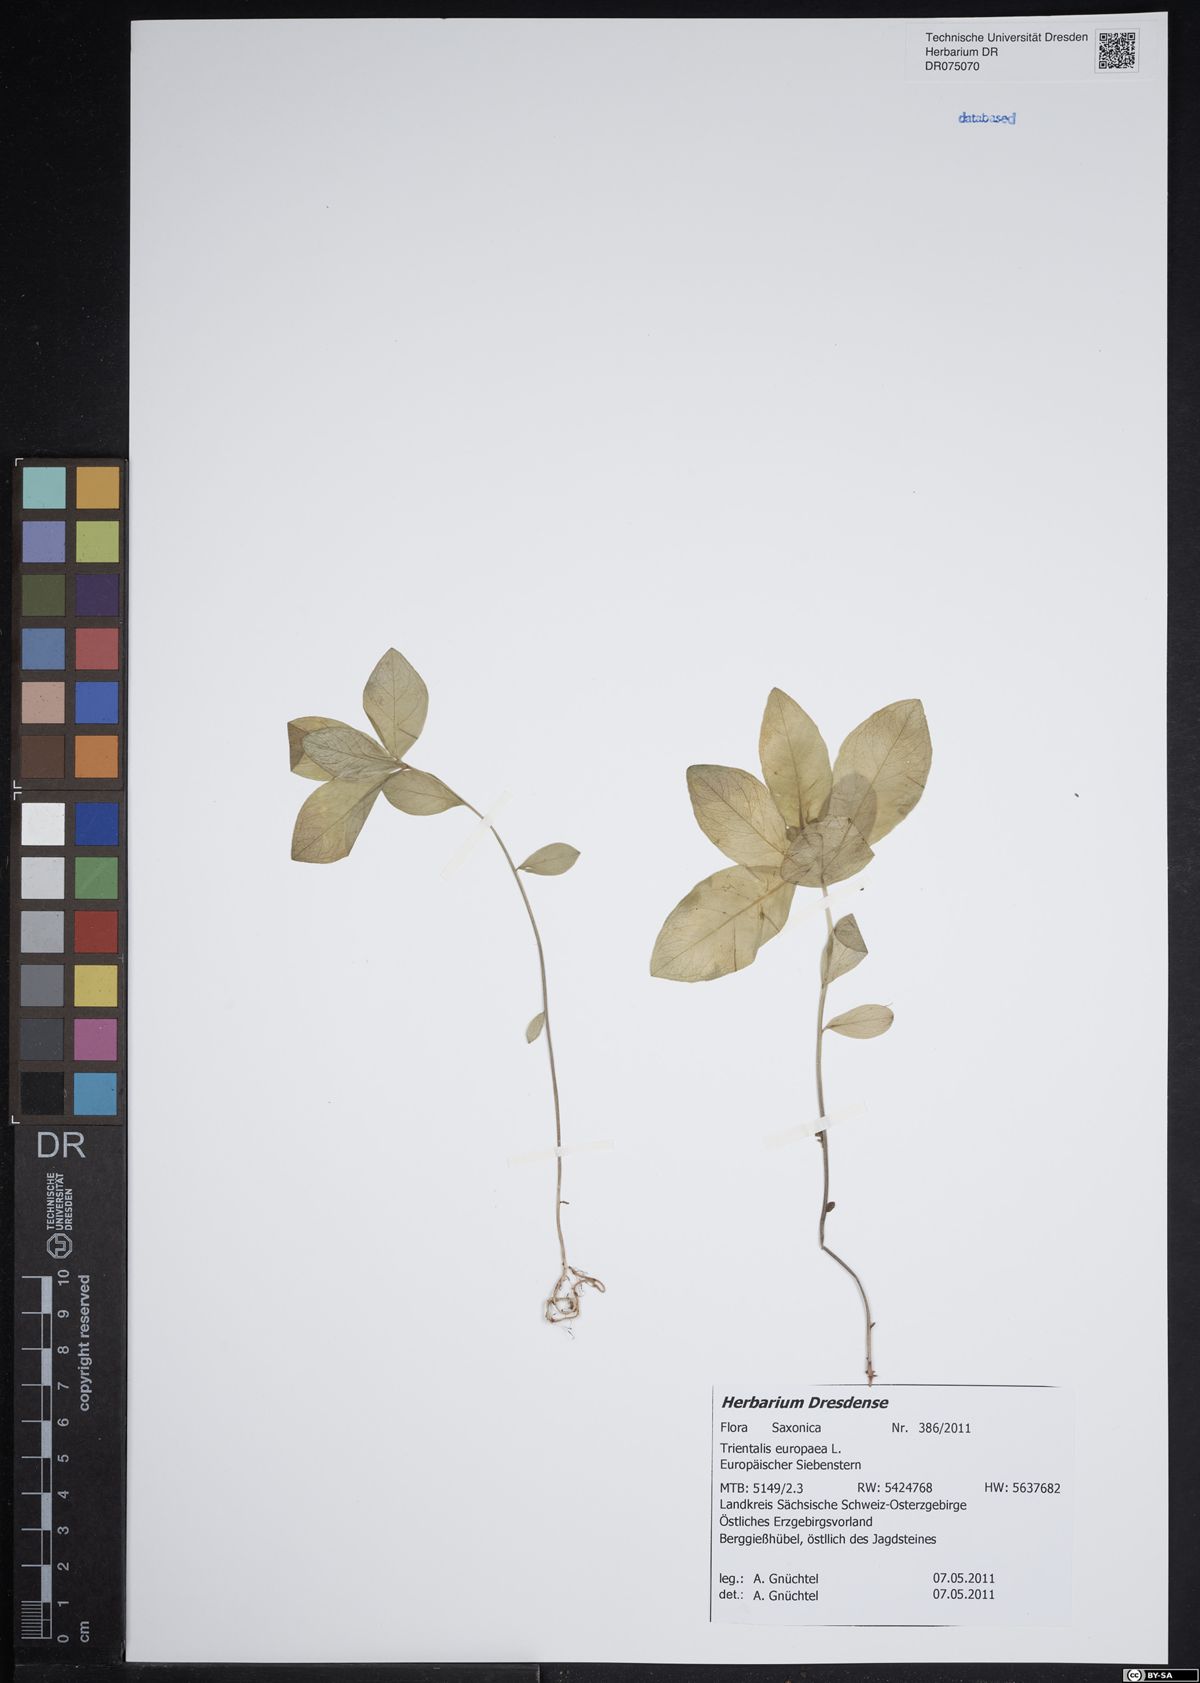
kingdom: Plantae
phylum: Tracheophyta
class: Magnoliopsida
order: Ericales
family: Primulaceae
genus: Lysimachia
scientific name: Lysimachia europaea
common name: Arctic starflower
